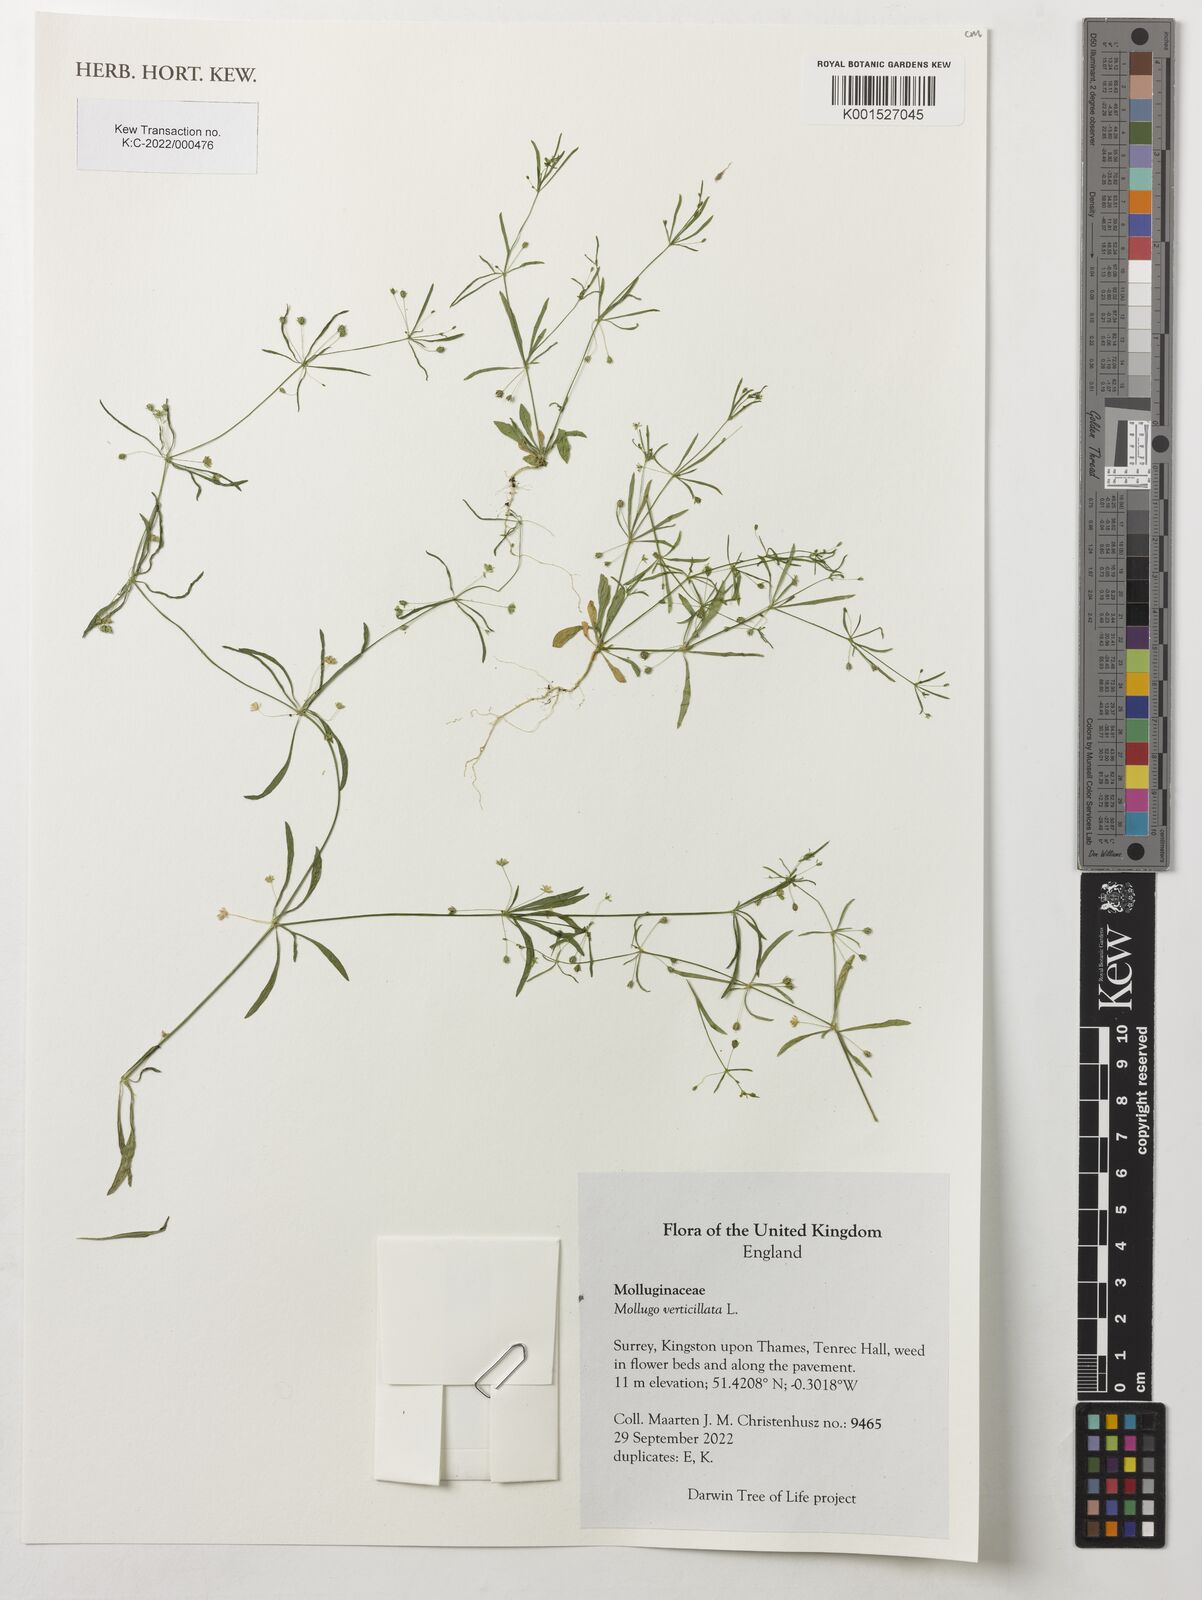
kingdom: Plantae
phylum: Tracheophyta
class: Magnoliopsida
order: Caryophyllales
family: Molluginaceae
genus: Mollugo
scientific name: Mollugo verticillata
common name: Green carpetweed
